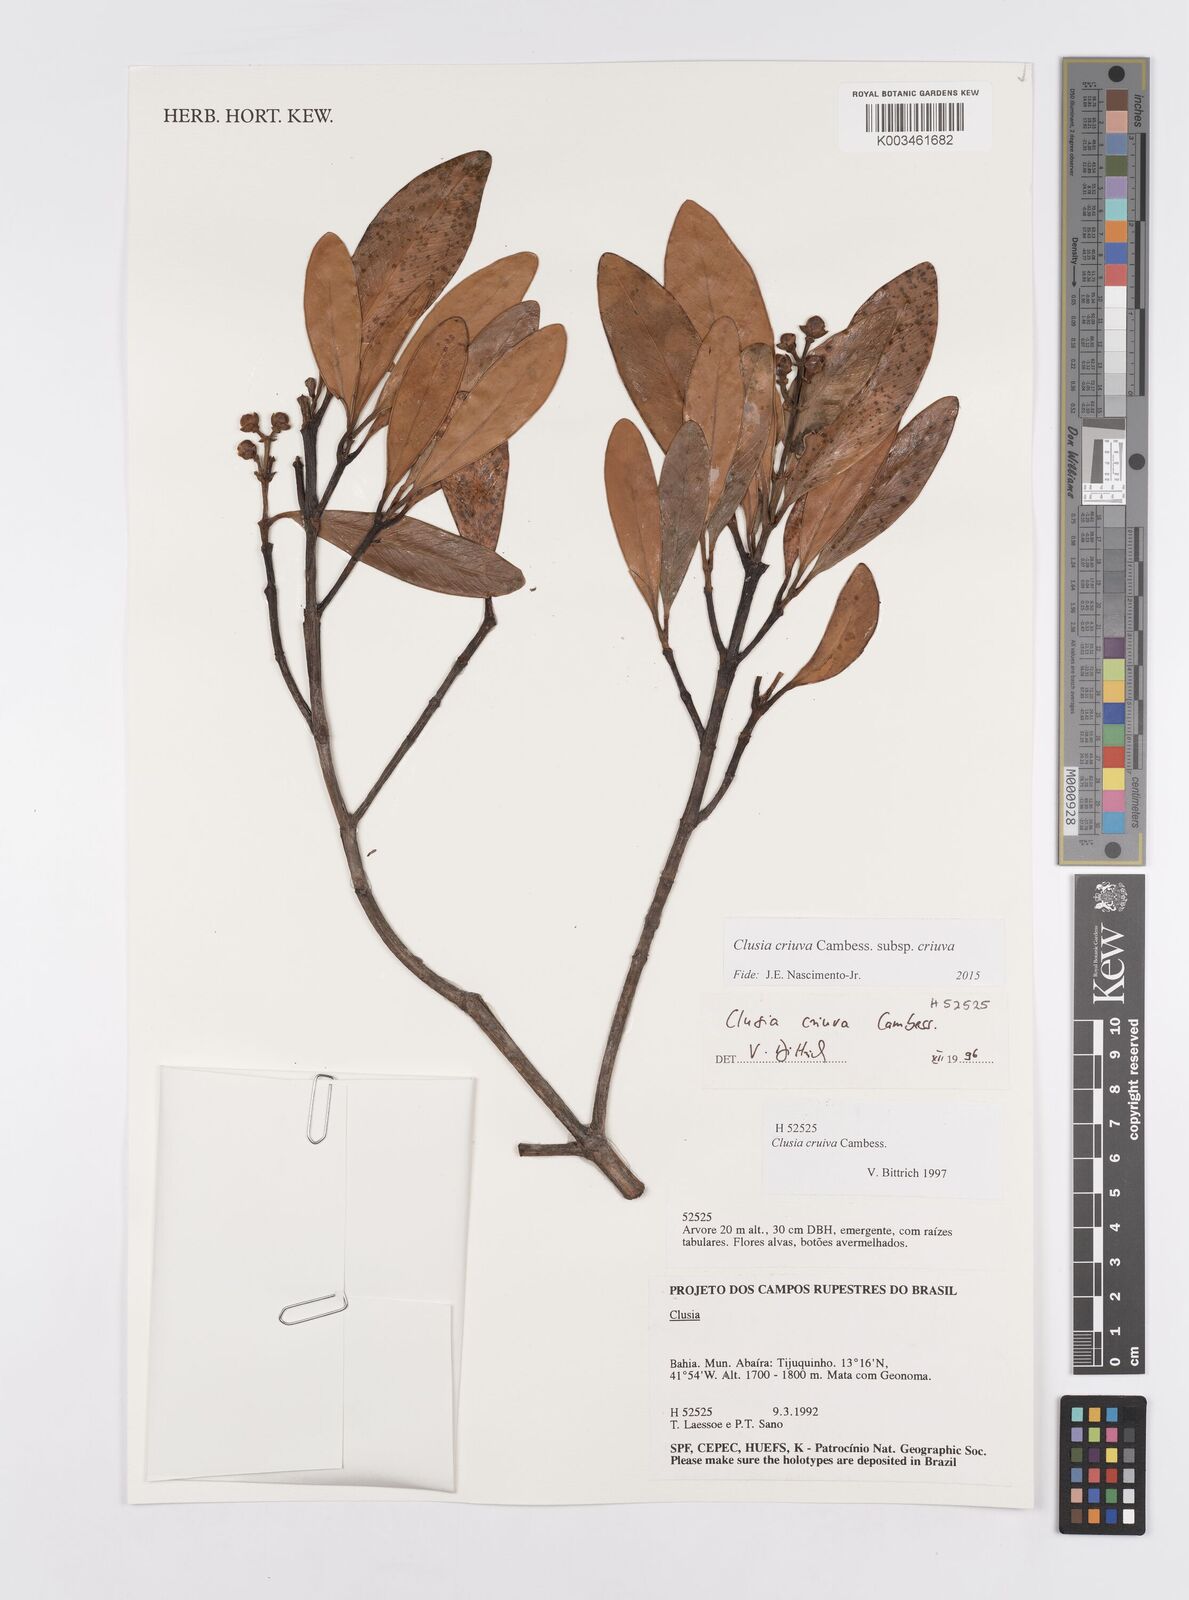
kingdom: Plantae
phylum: Tracheophyta
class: Magnoliopsida
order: Malpighiales
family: Clusiaceae
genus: Clusia
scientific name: Clusia criuva
